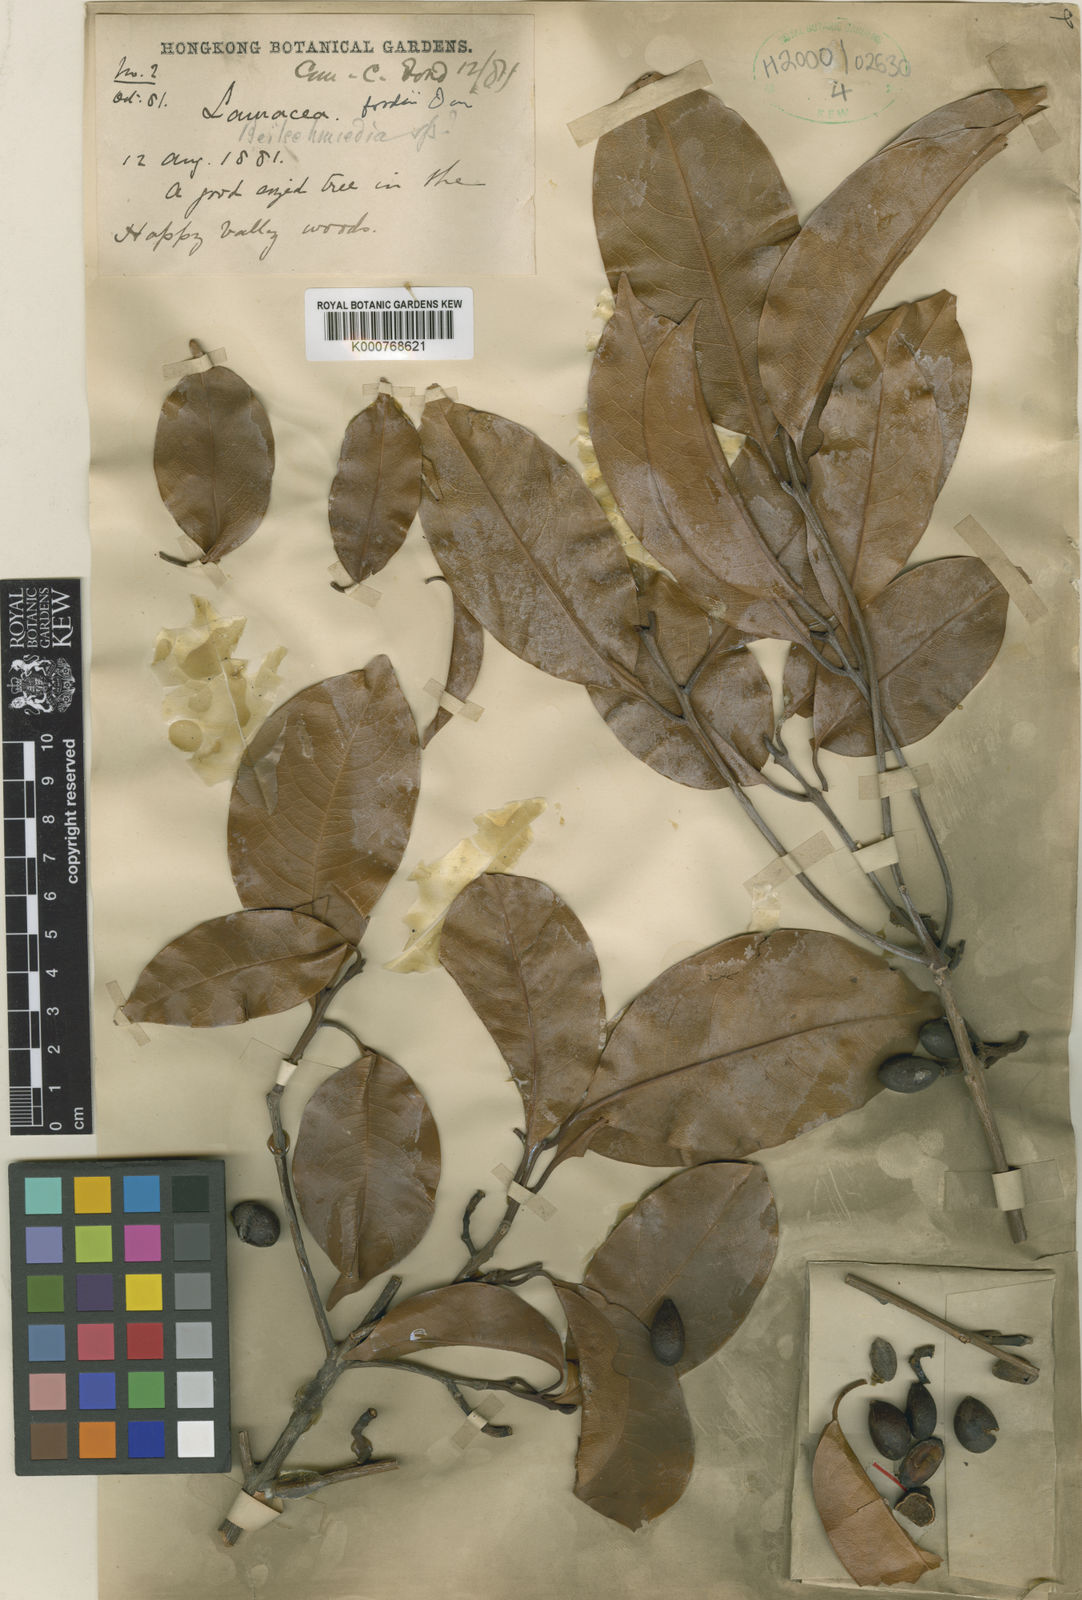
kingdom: Plantae
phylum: Tracheophyta
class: Magnoliopsida
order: Laurales
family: Lauraceae
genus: Beilschmiedia
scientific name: Beilschmiedia fordii
